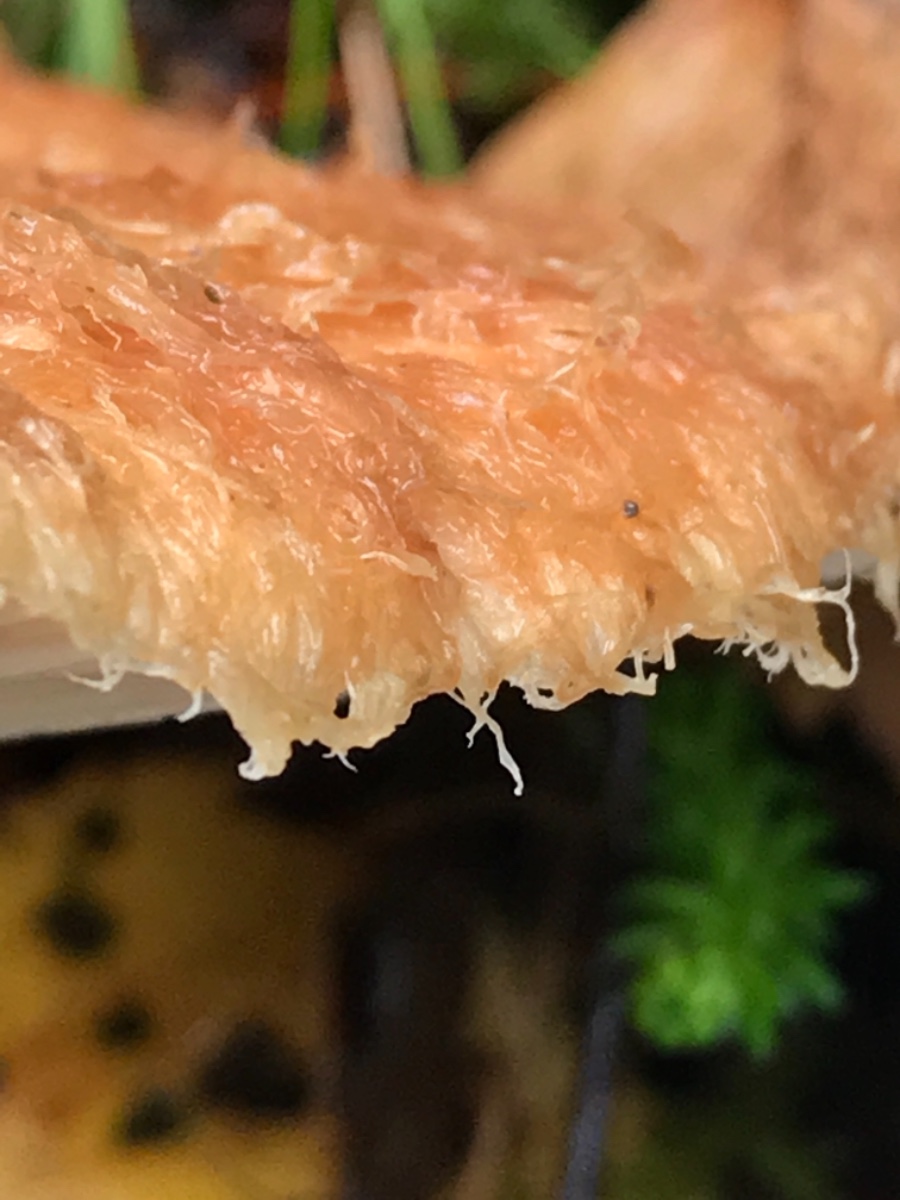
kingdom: Fungi
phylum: Basidiomycota
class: Agaricomycetes
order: Russulales
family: Russulaceae
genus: Lactarius
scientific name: Lactarius torminosus
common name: skægget mælkehat
